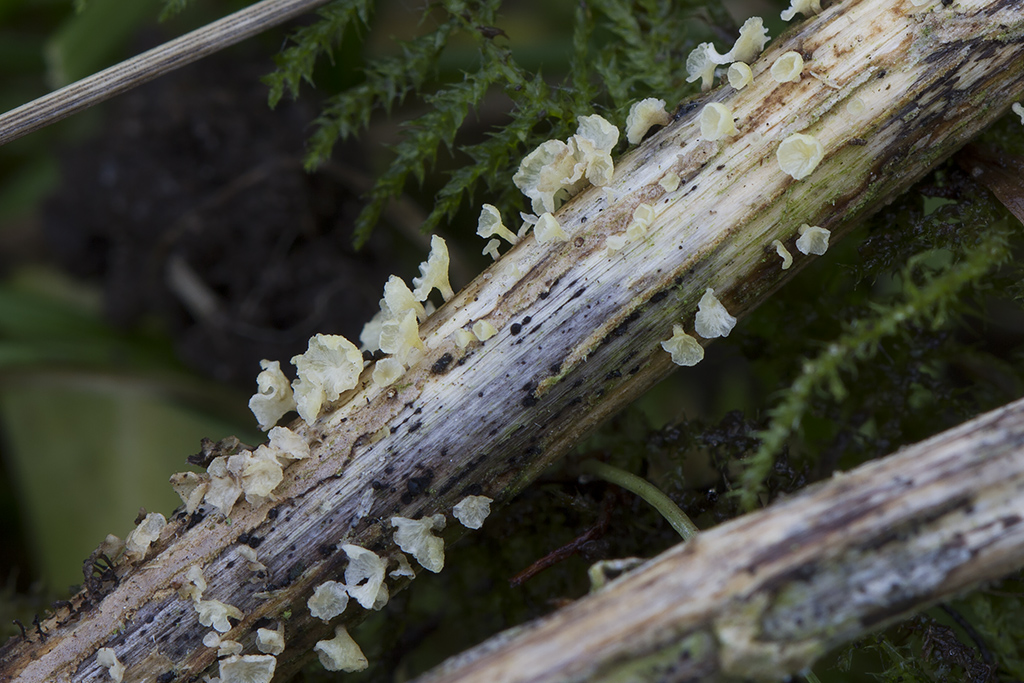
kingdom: Fungi
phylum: Basidiomycota
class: Agaricomycetes
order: Agaricales
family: Marasmiaceae
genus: Calyptella
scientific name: Calyptella campanula
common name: gul nældehue
